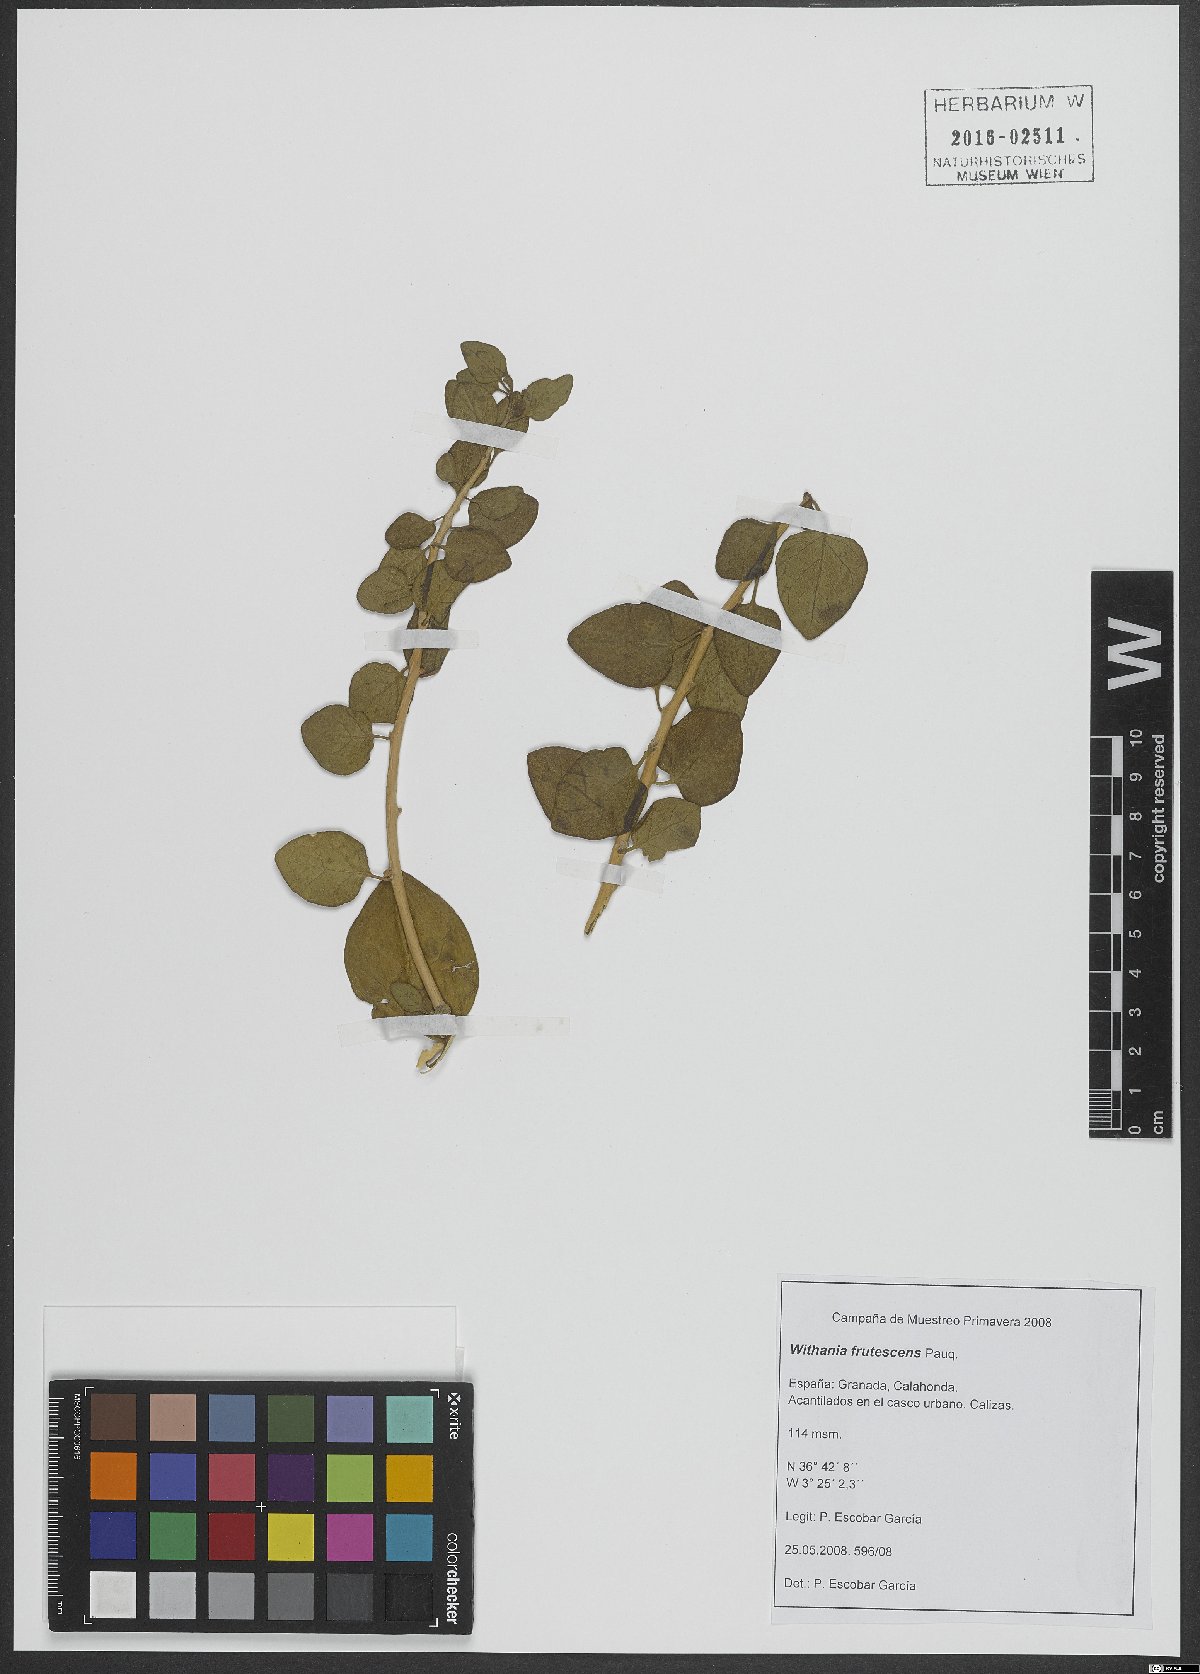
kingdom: Plantae
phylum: Tracheophyta
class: Magnoliopsida
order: Solanales
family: Solanaceae
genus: Withania
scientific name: Withania frutescens
